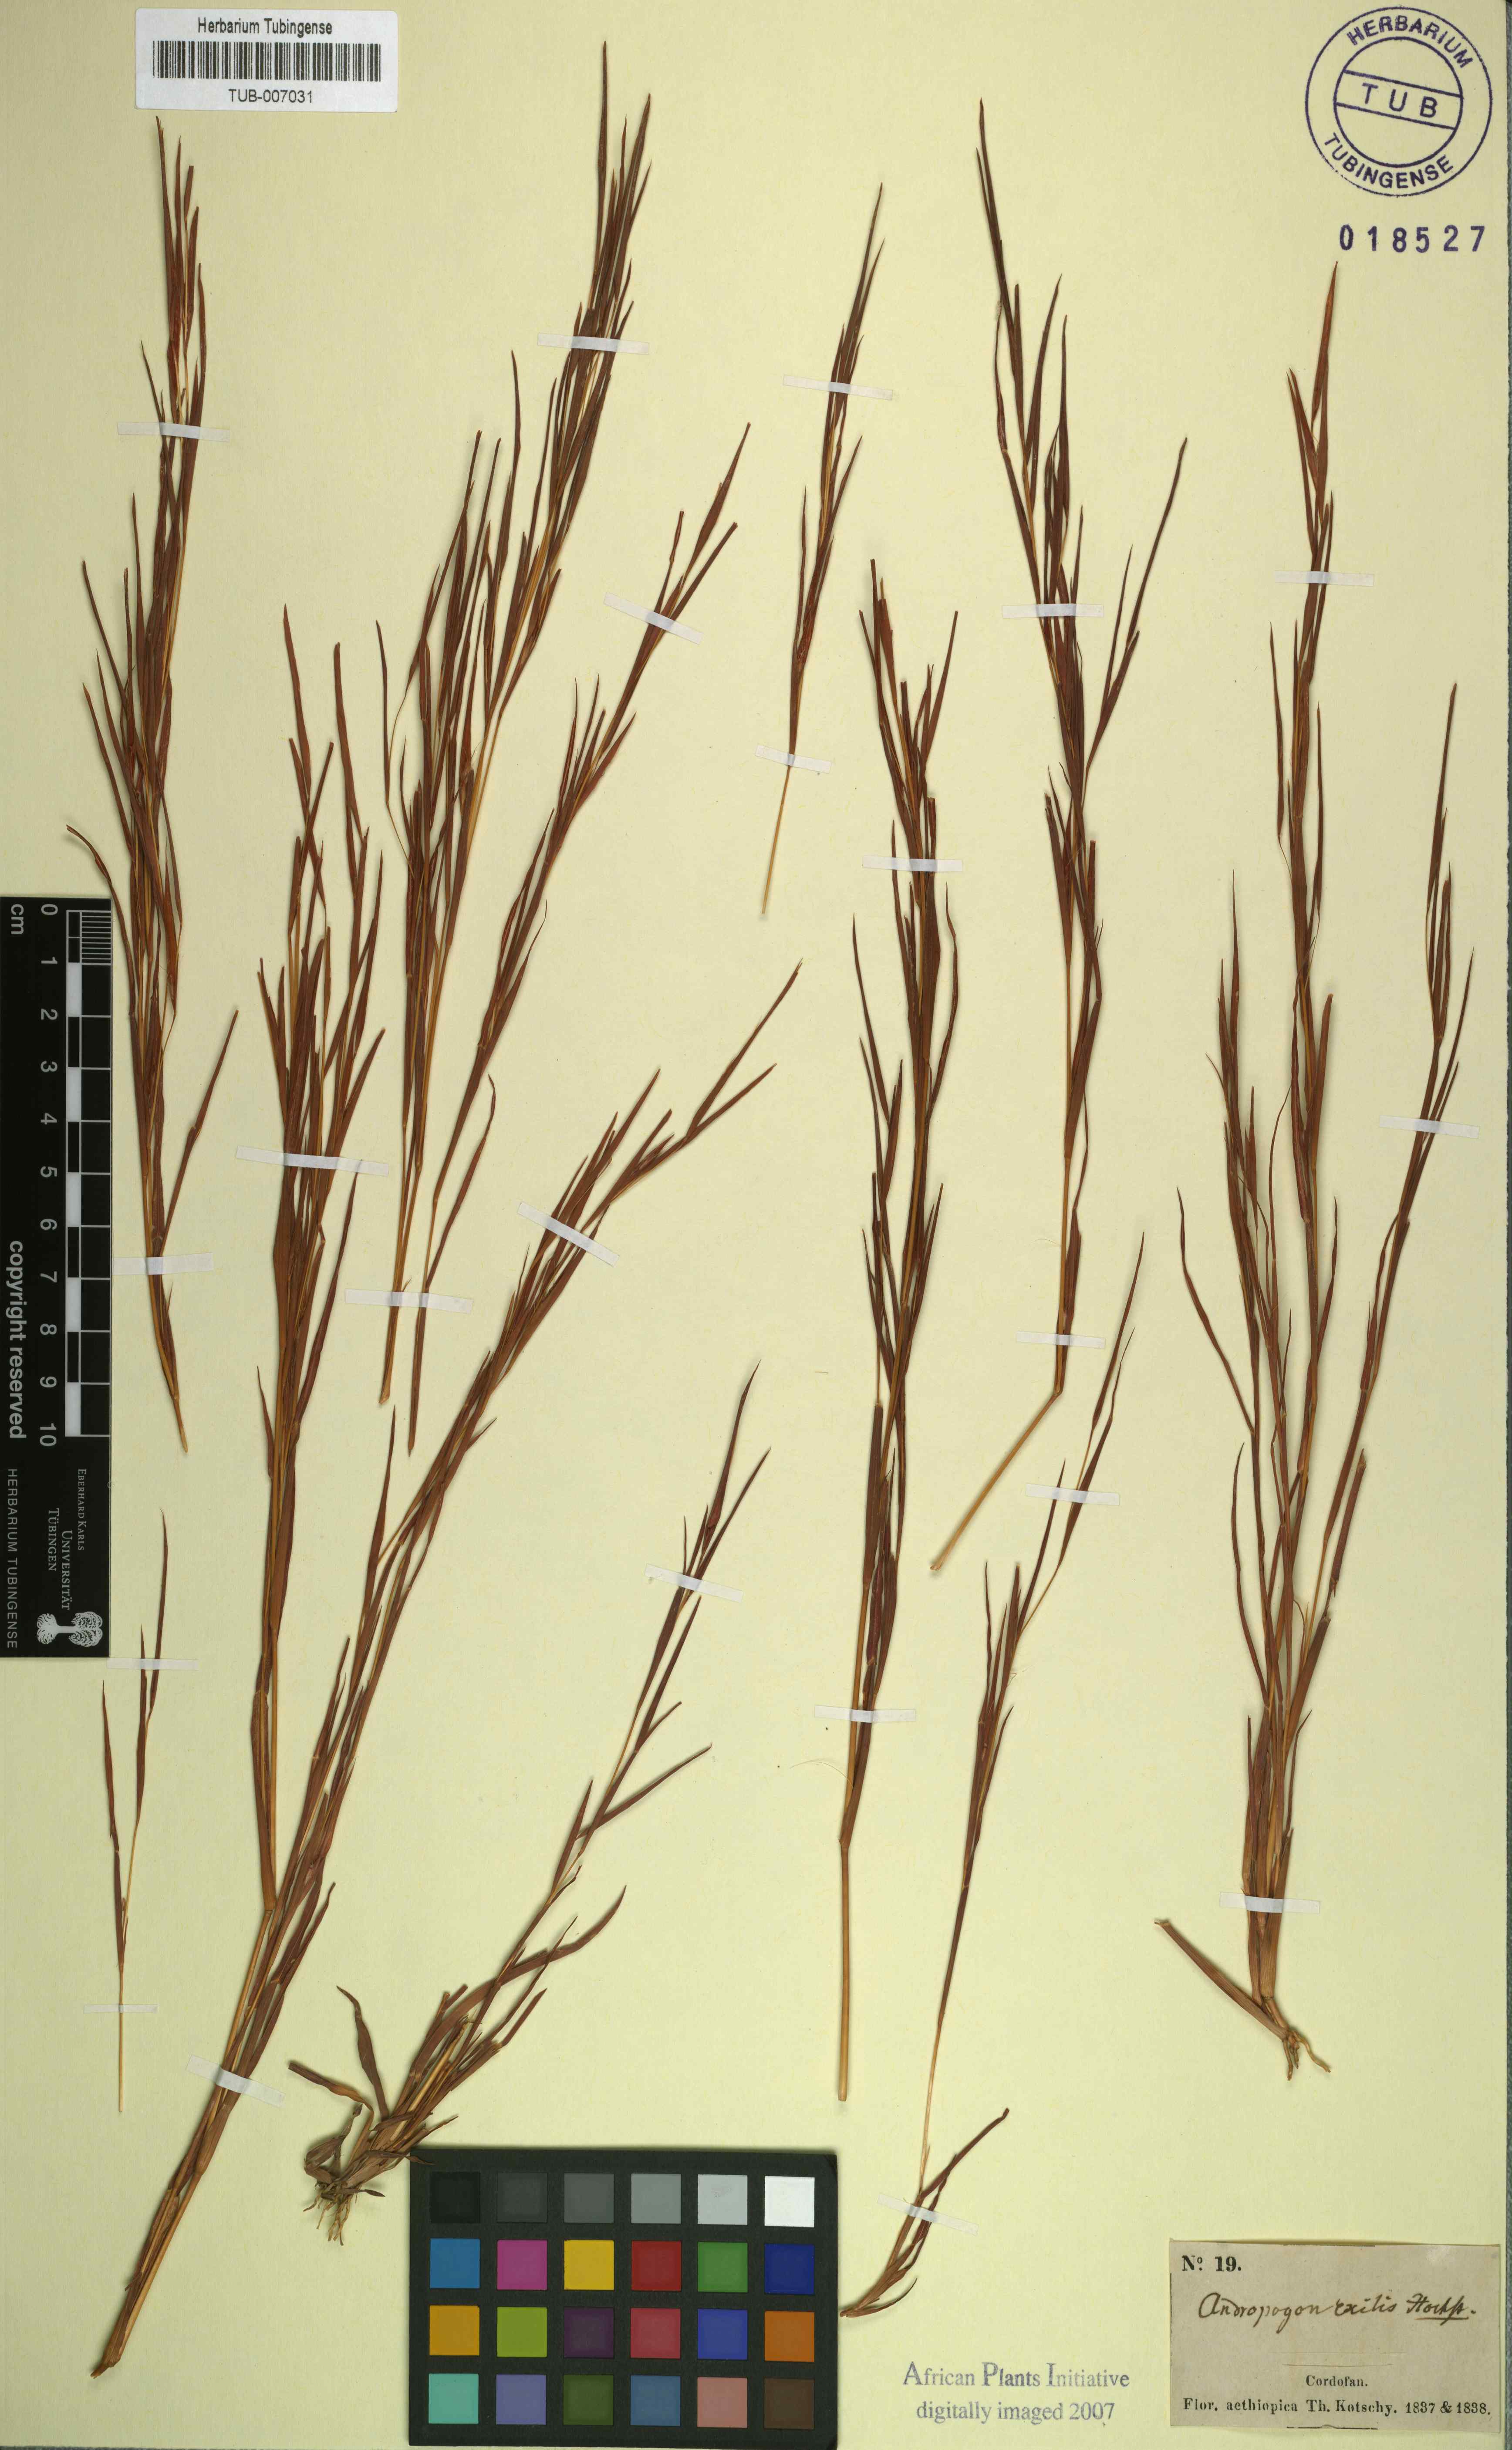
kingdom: Plantae
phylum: Tracheophyta
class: Liliopsida
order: Poales
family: Poaceae
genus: Schizachyrium
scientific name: Schizachyrium exile
